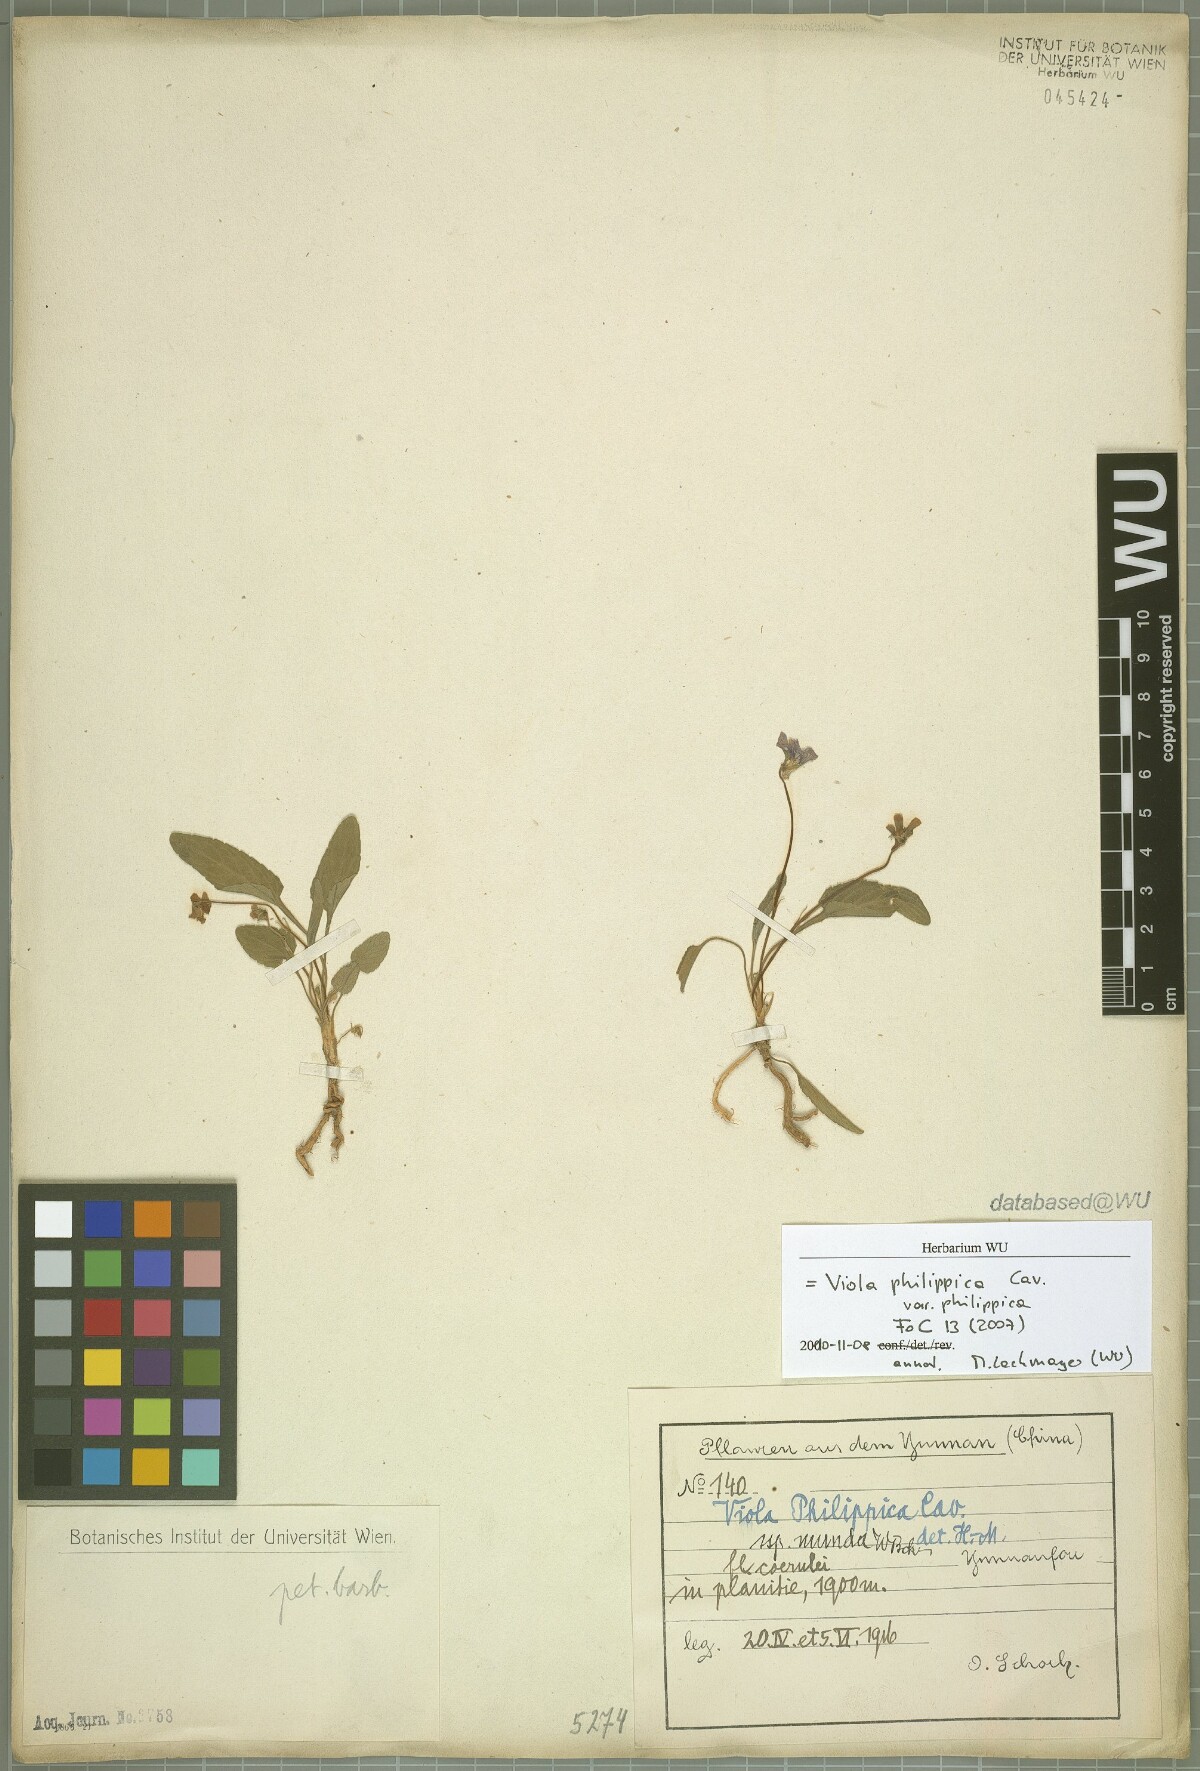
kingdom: Plantae
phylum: Tracheophyta
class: Magnoliopsida
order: Malpighiales
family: Violaceae
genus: Viola
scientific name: Viola philippica
